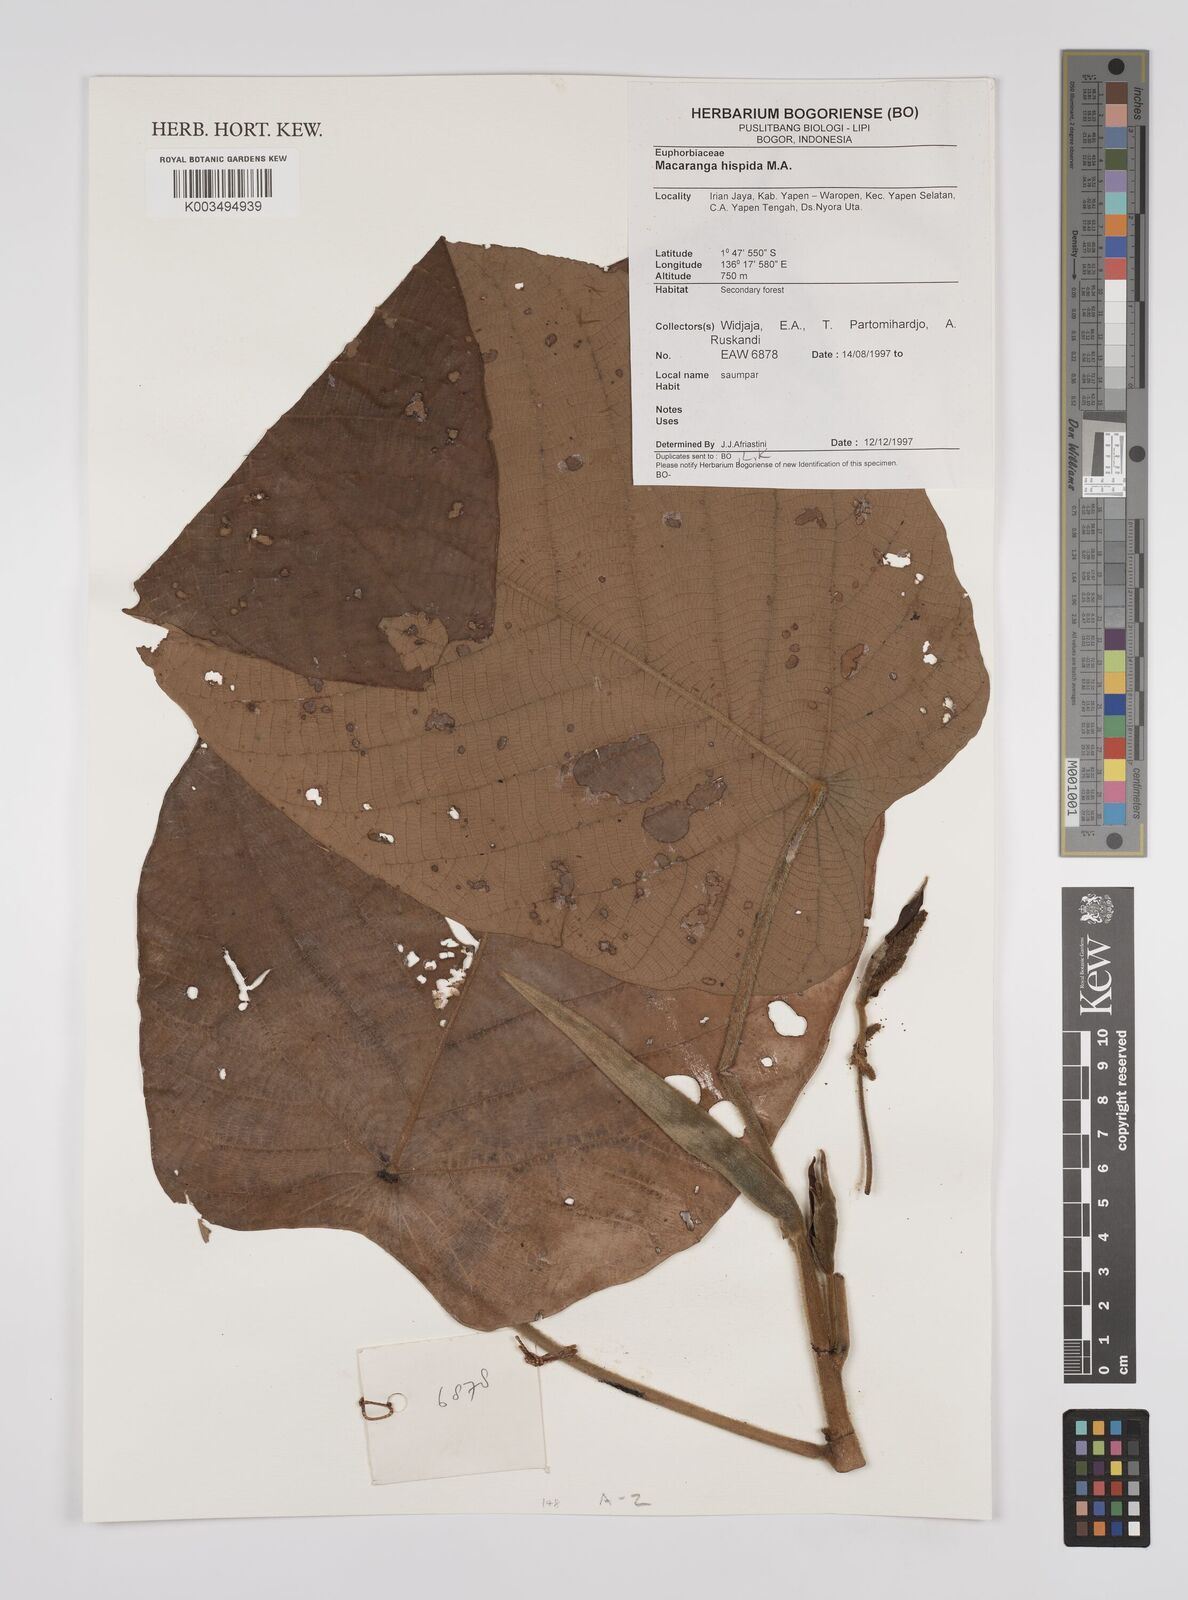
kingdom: Plantae
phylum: Tracheophyta
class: Magnoliopsida
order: Malpighiales
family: Euphorbiaceae
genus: Macaranga
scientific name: Macaranga hispida
